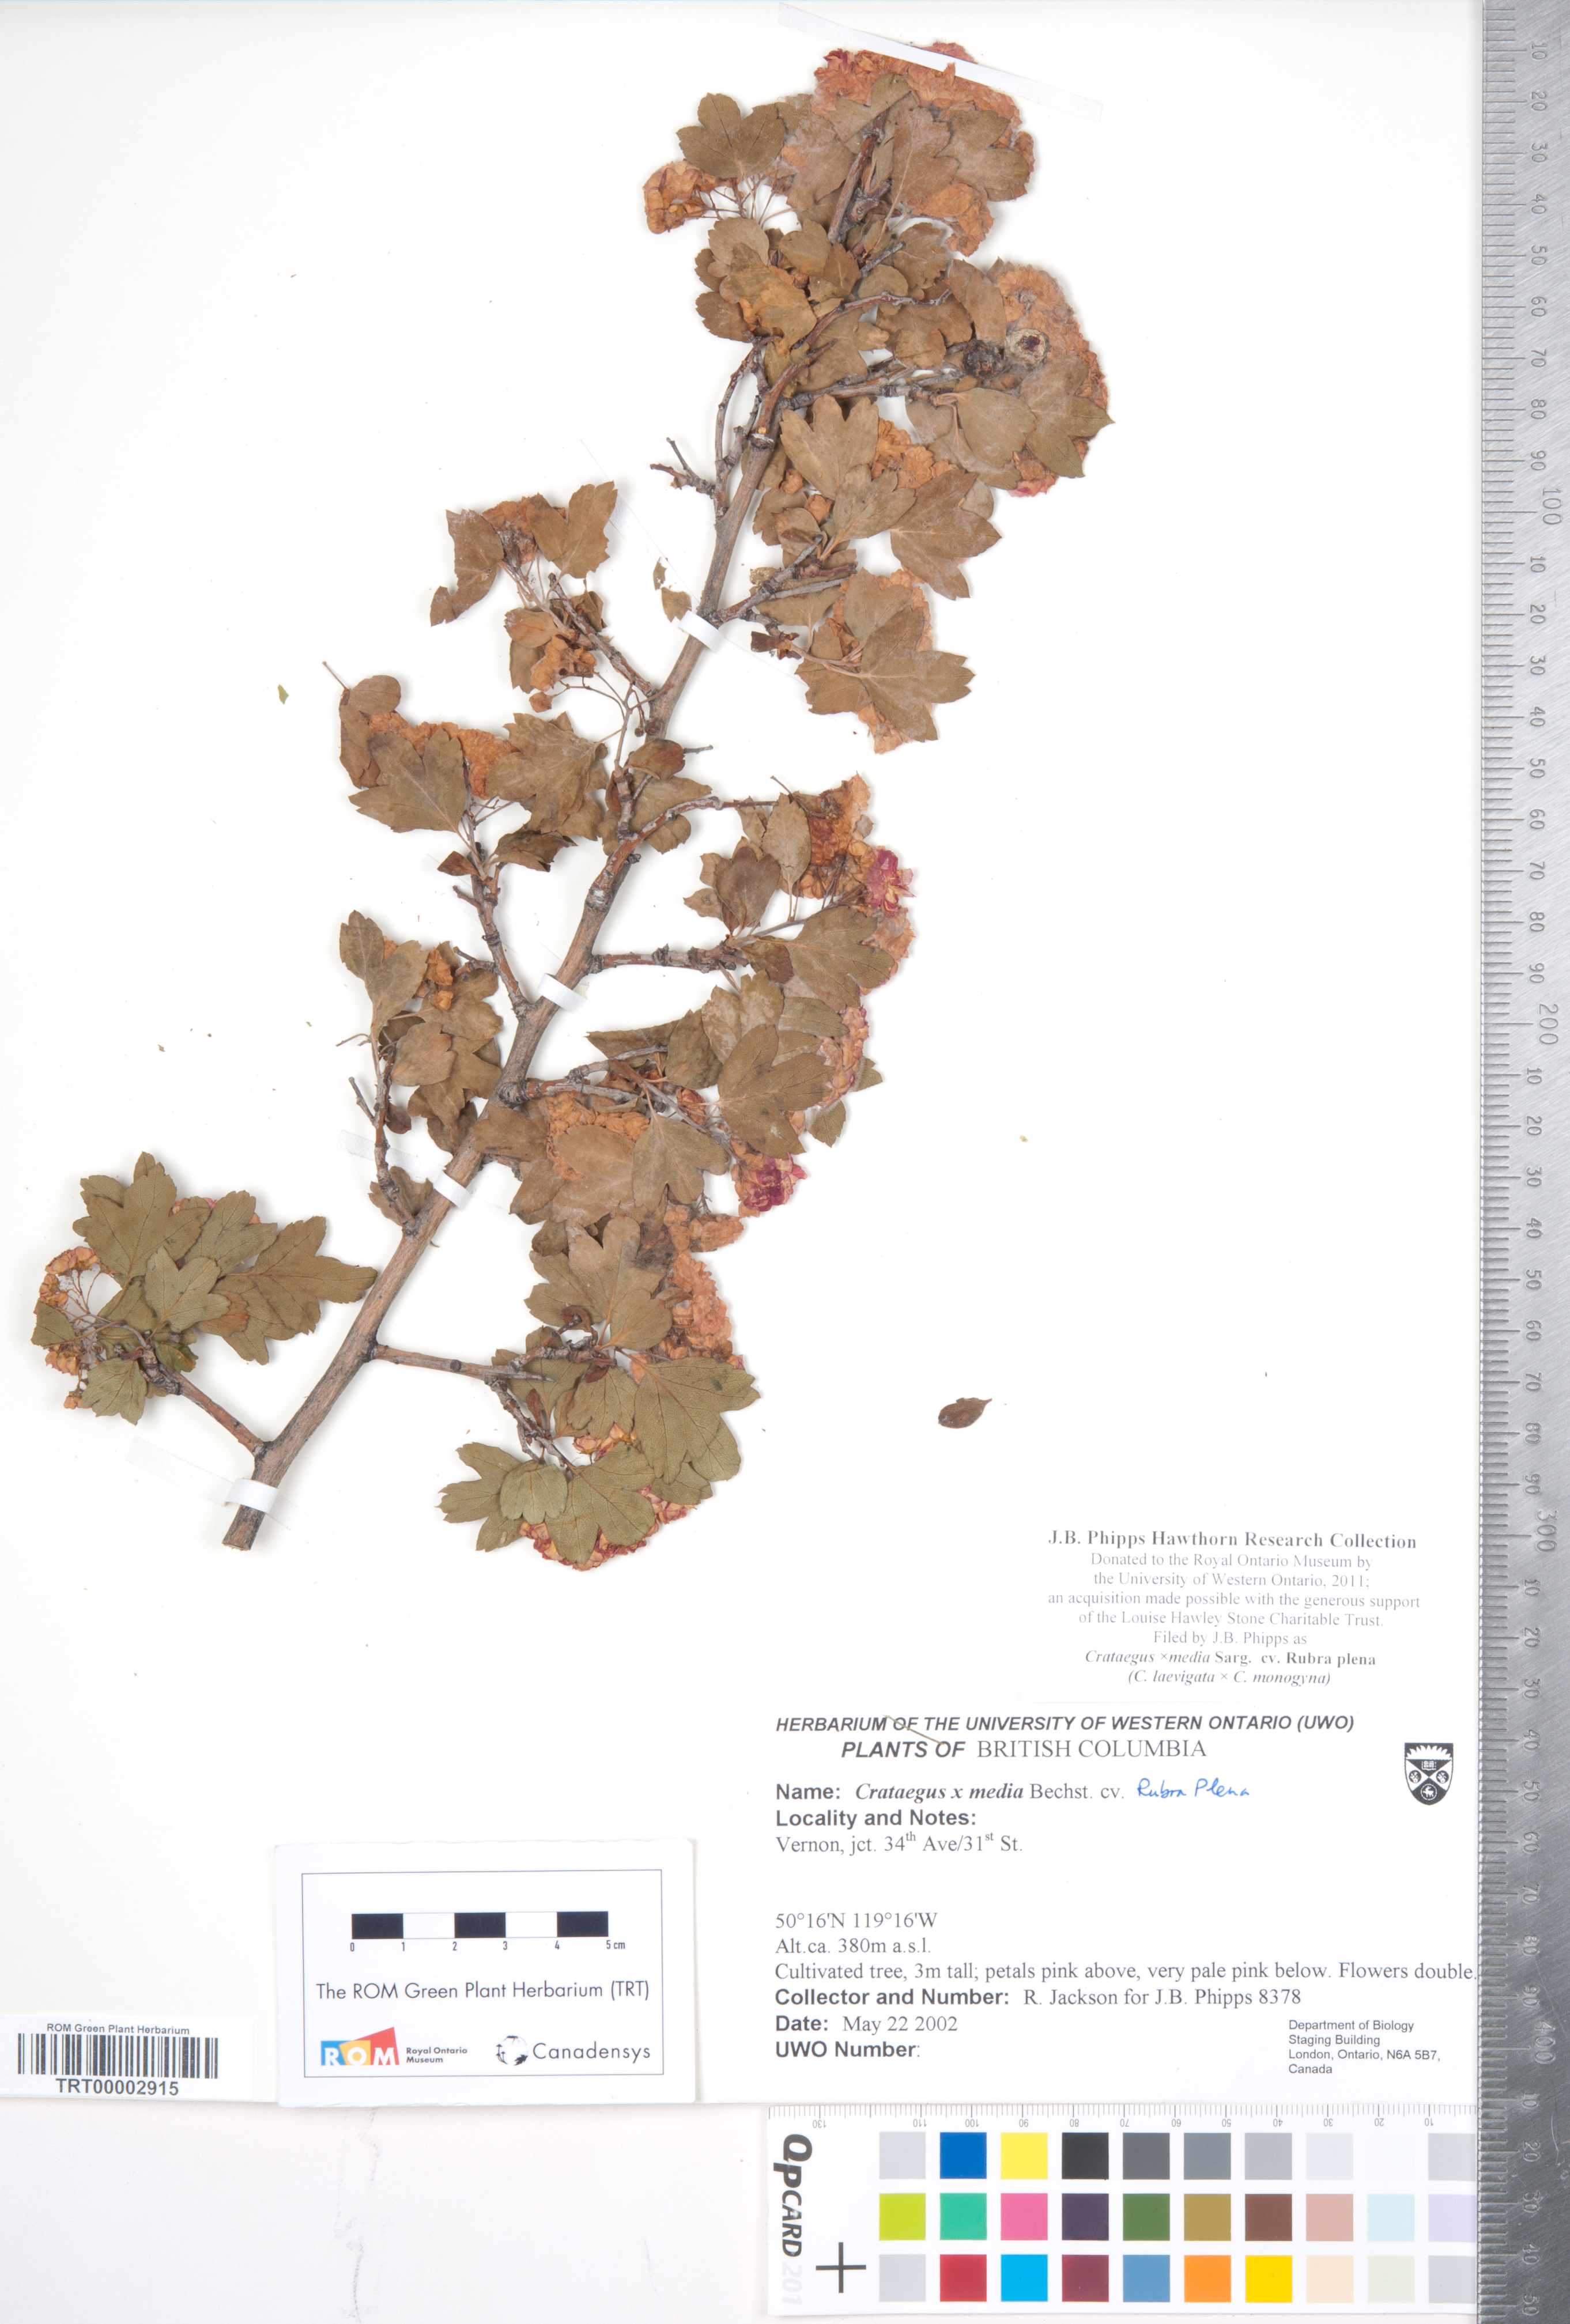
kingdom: Plantae
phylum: Tracheophyta
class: Magnoliopsida
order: Rosales
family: Rosaceae
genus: Crataegus
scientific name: Crataegus media
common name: Intermediate hawthorn
